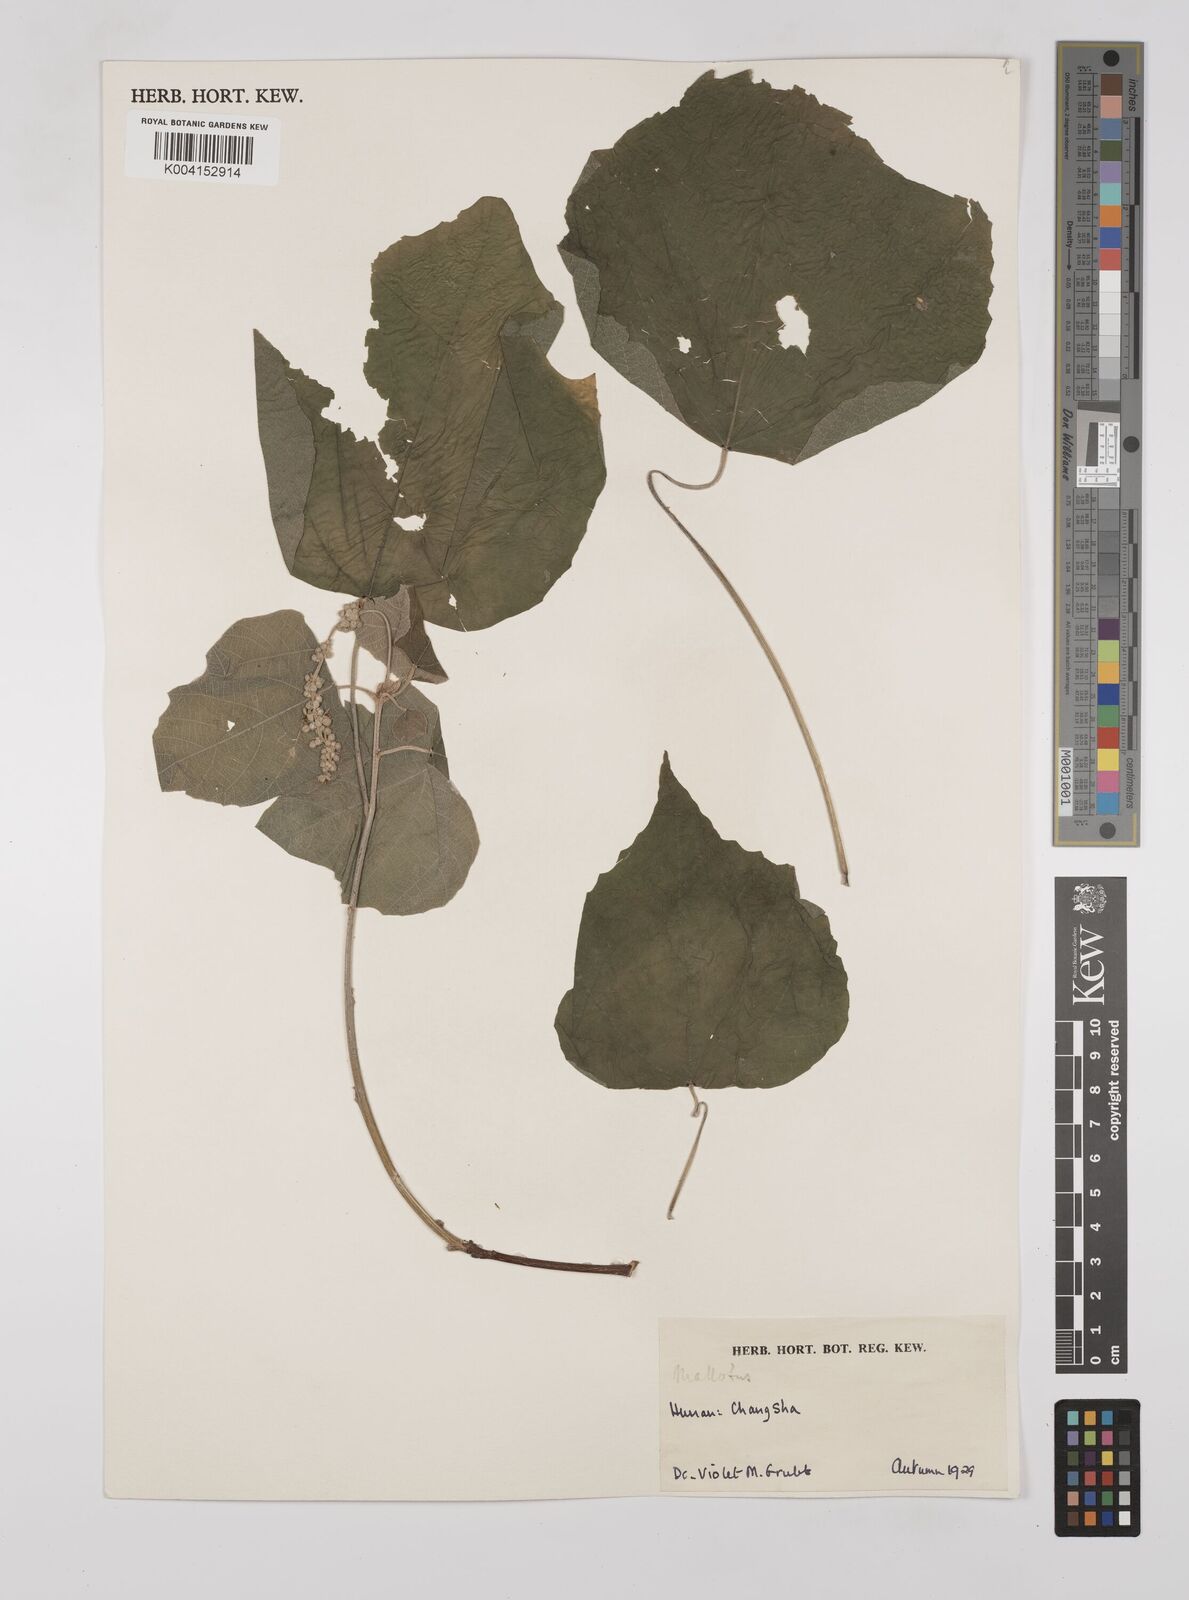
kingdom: Plantae
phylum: Tracheophyta
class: Magnoliopsida
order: Malpighiales
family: Euphorbiaceae
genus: Mallotus
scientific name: Mallotus
